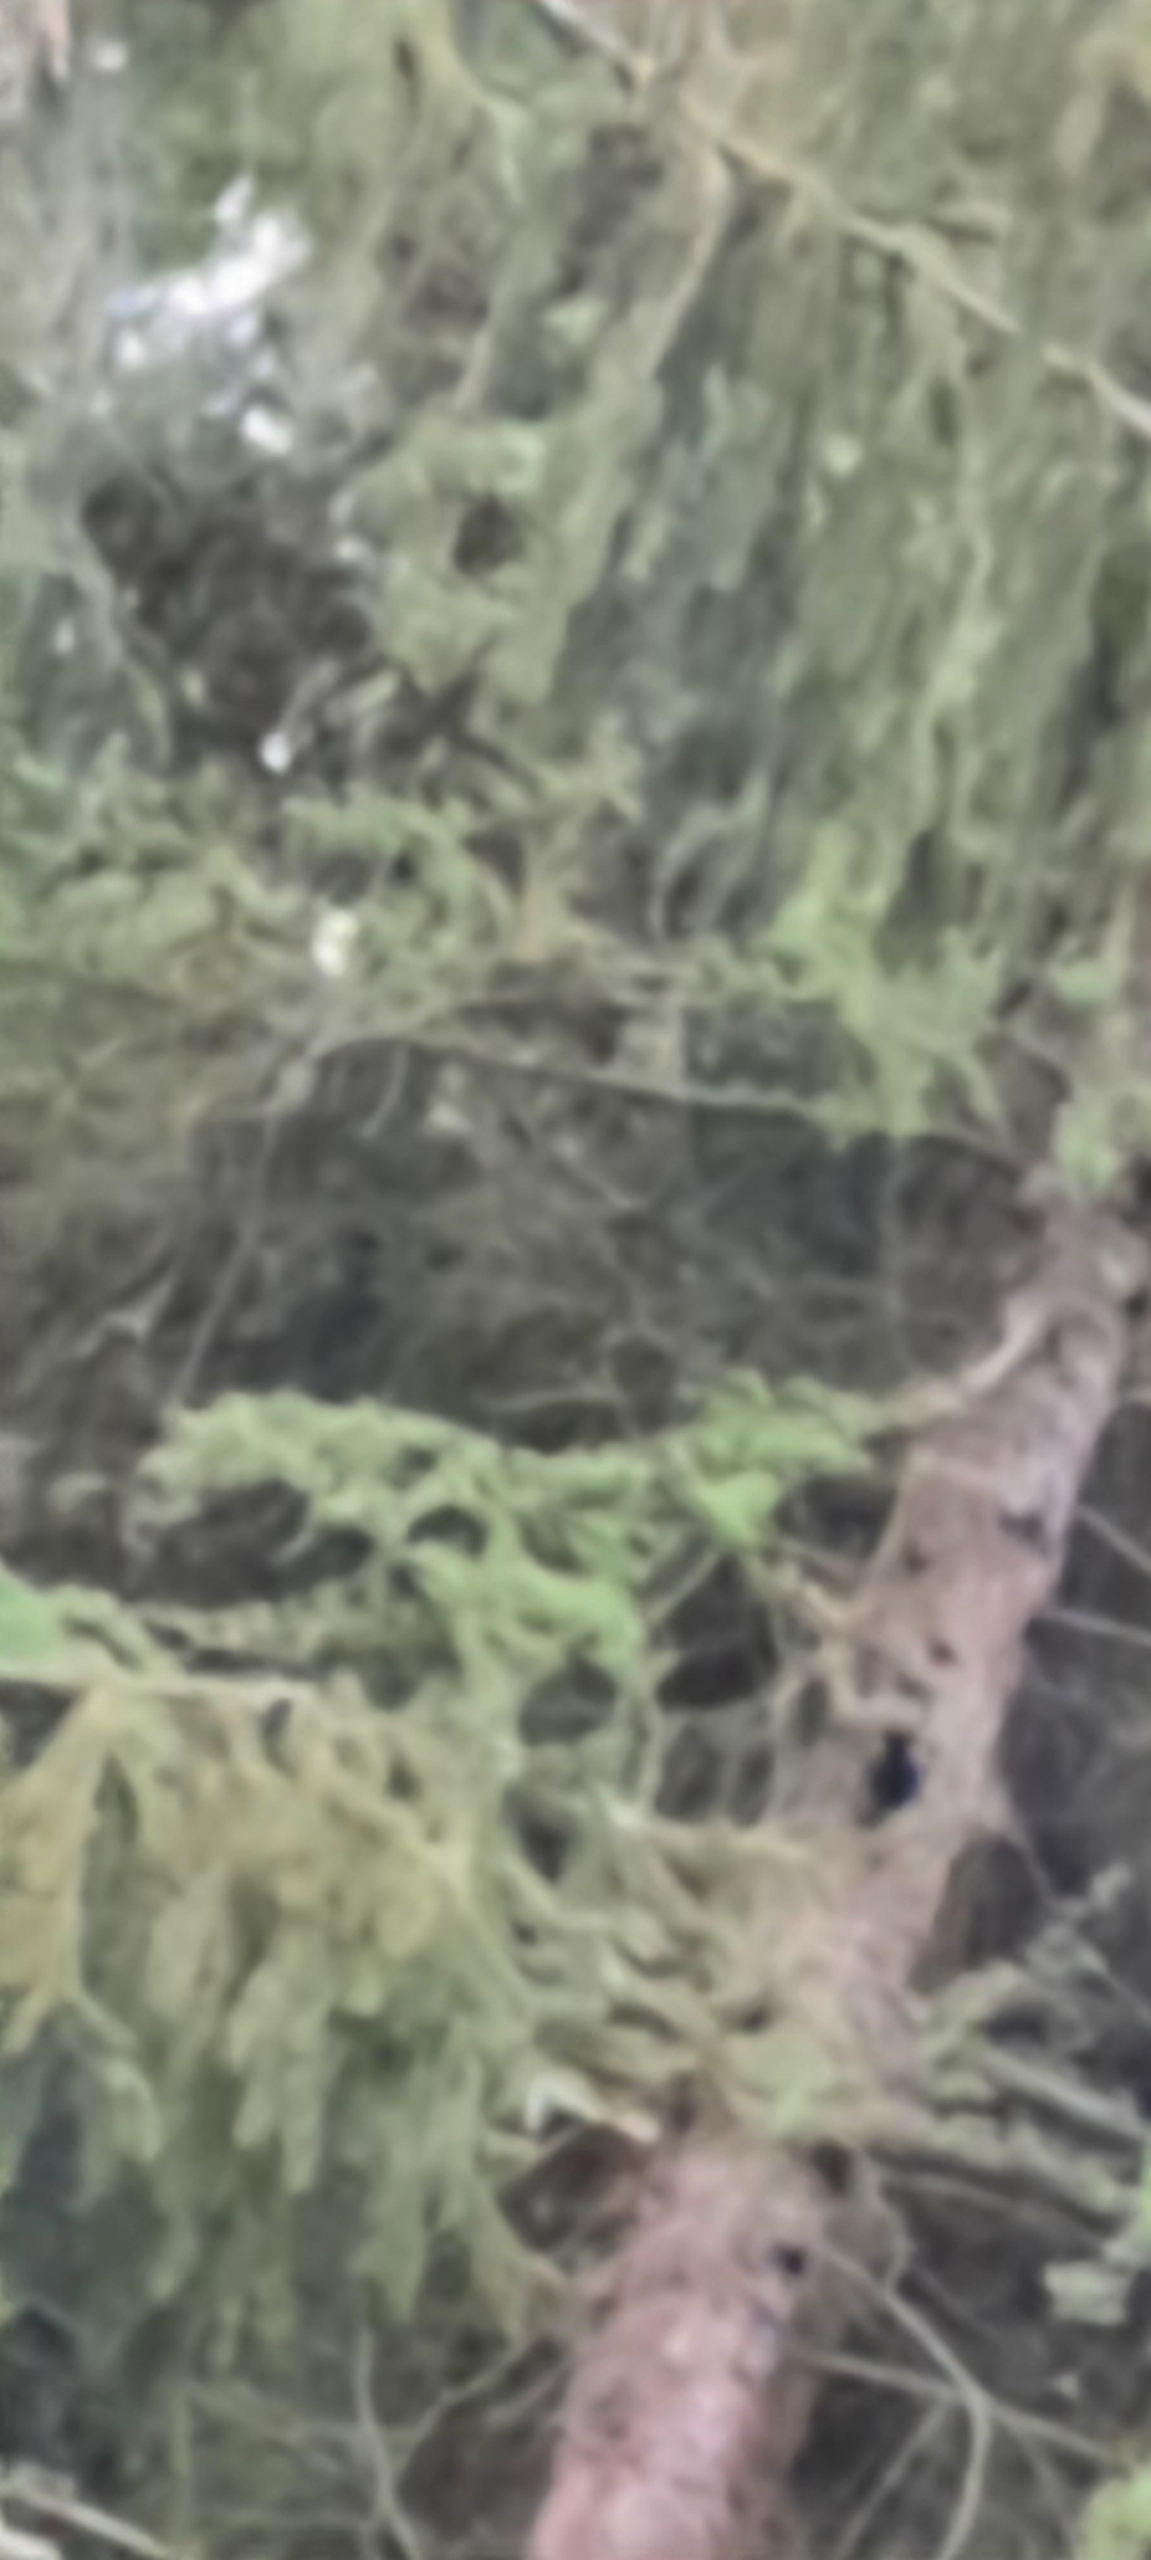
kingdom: Animalia
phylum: Chordata
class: Aves
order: Piciformes
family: Picidae
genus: Dendrocopos
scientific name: Dendrocopos major
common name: Stor flagspætte
